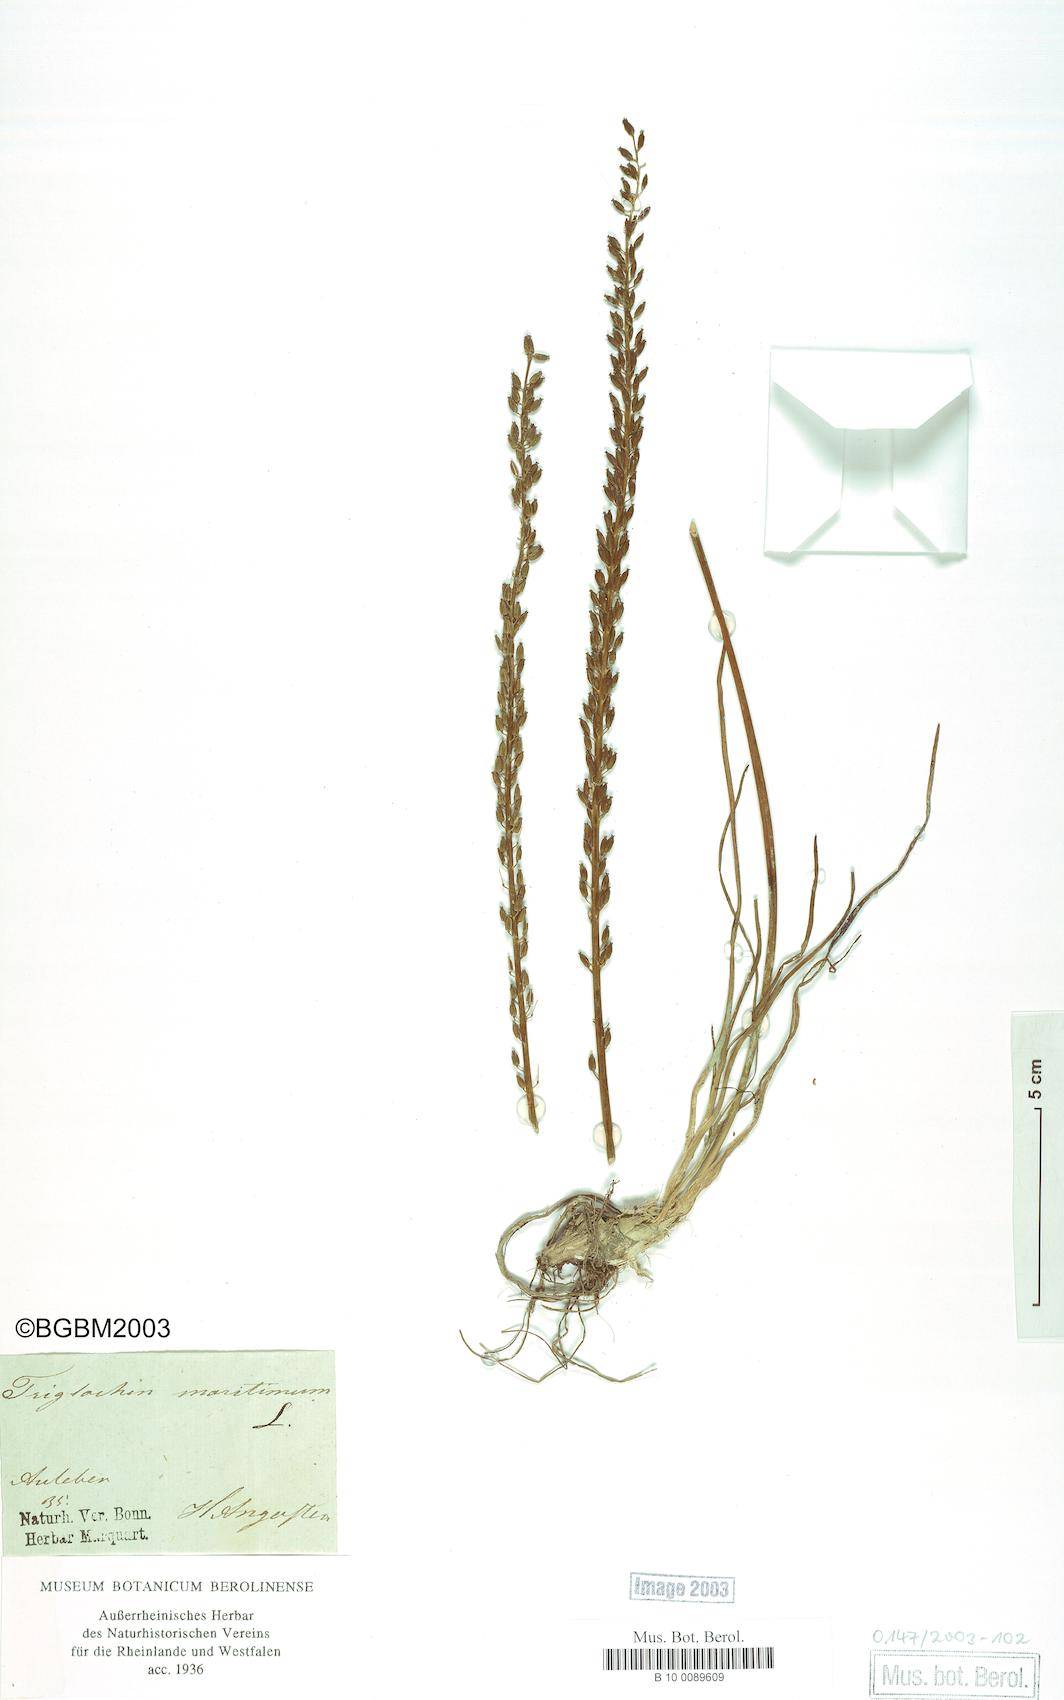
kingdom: Plantae
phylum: Tracheophyta
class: Liliopsida
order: Alismatales
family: Juncaginaceae
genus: Triglochin
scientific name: Triglochin maritima
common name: Sea arrowgrass
